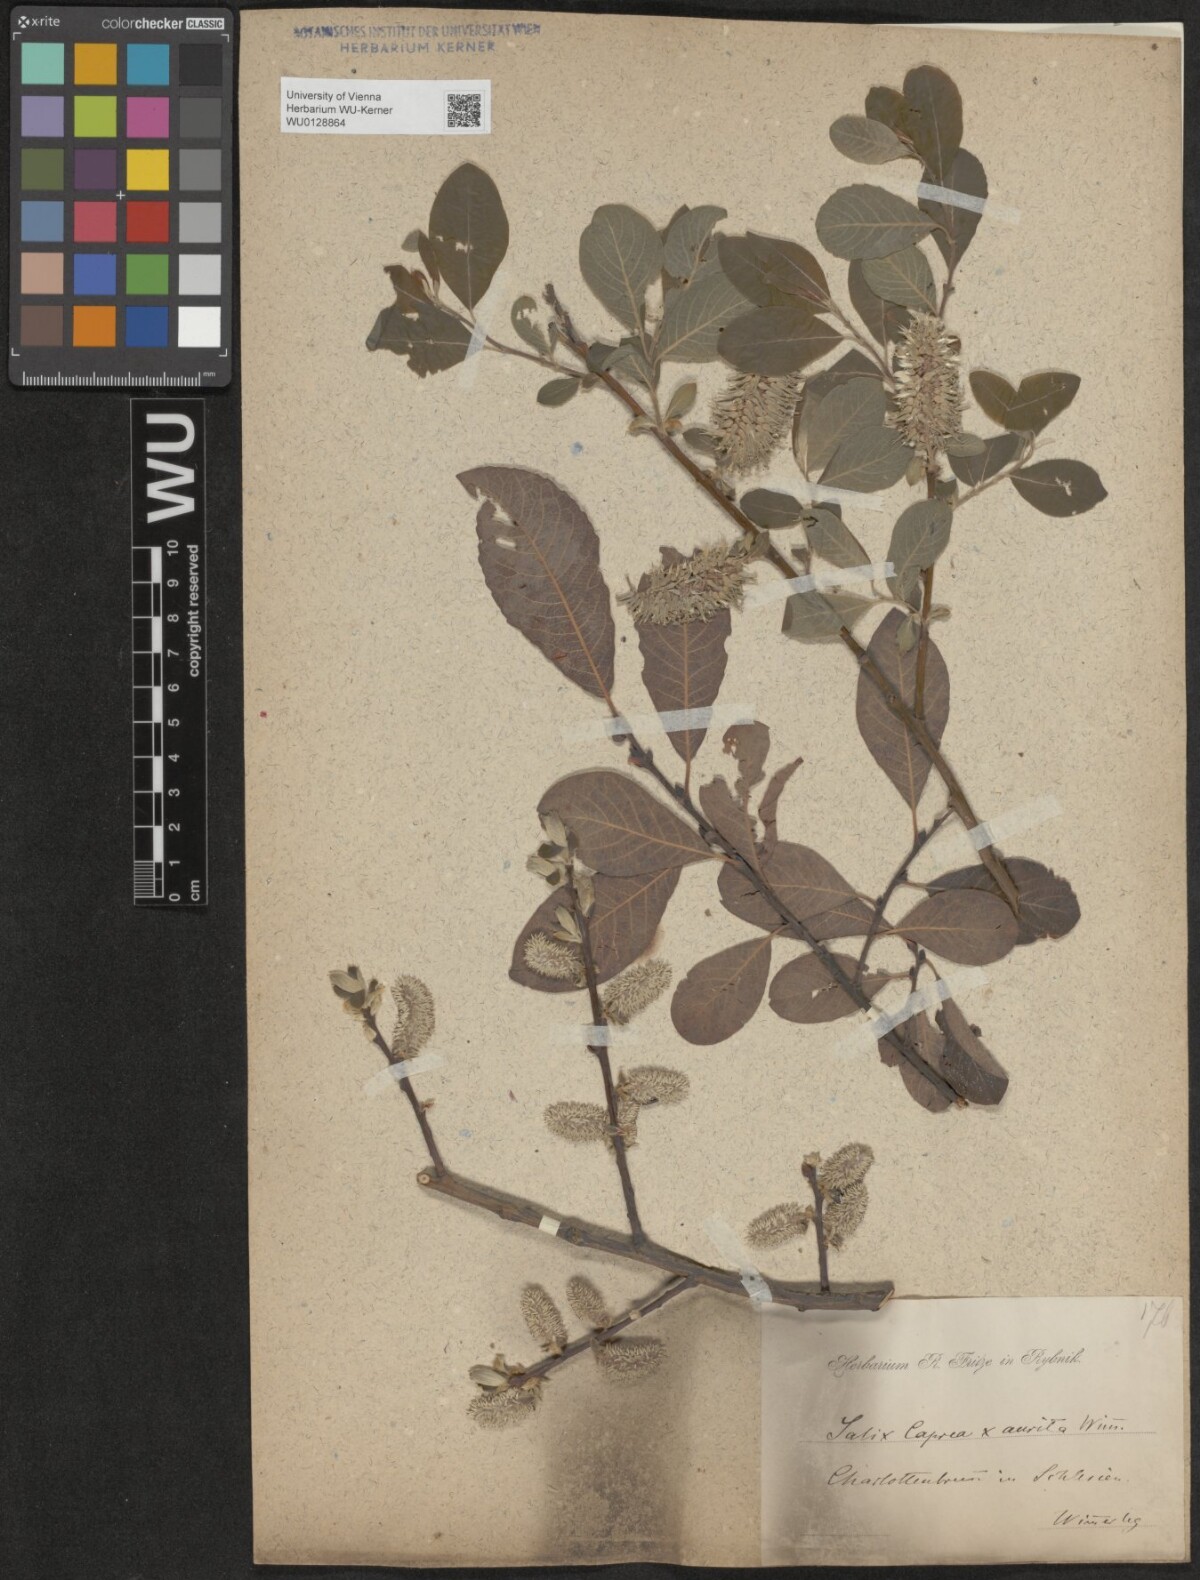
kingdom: Plantae
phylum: Tracheophyta
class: Magnoliopsida
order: Malpighiales
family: Salicaceae
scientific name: Salicaceae
